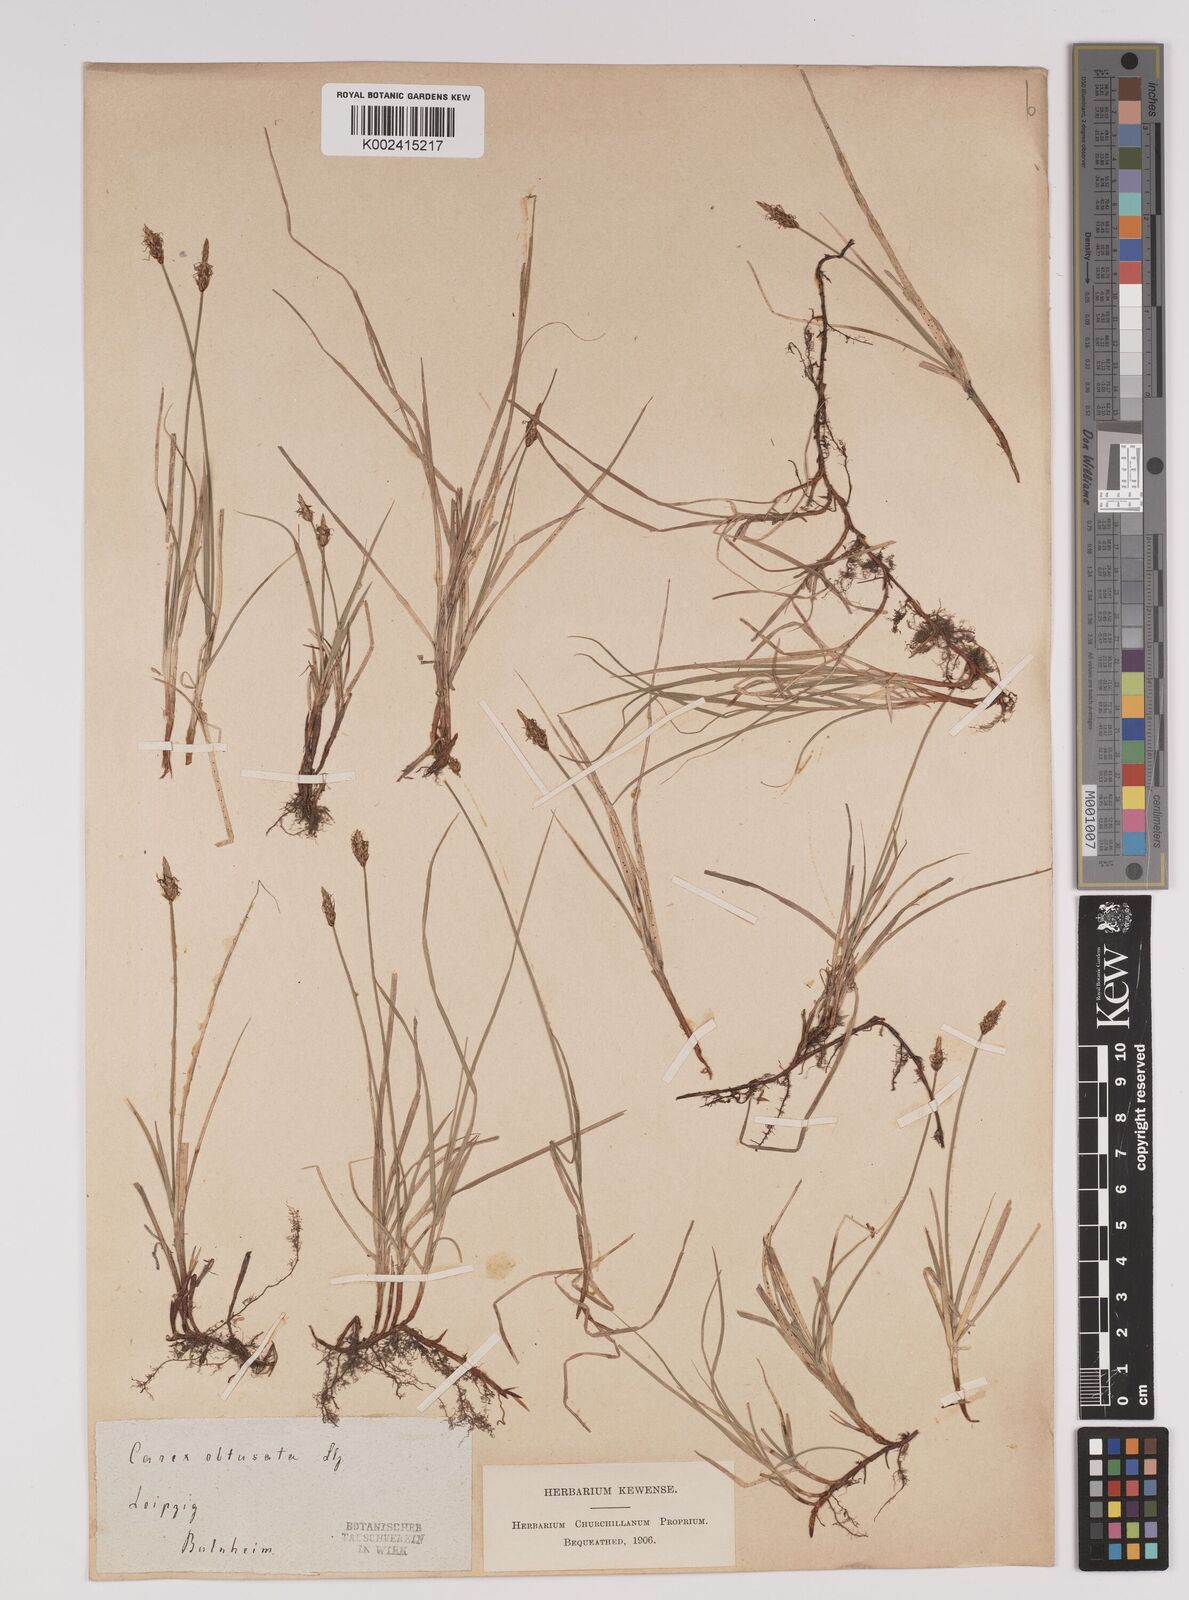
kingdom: Plantae
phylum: Tracheophyta
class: Liliopsida
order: Poales
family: Cyperaceae
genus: Carex
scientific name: Carex obtusata
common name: Blunt sedge
